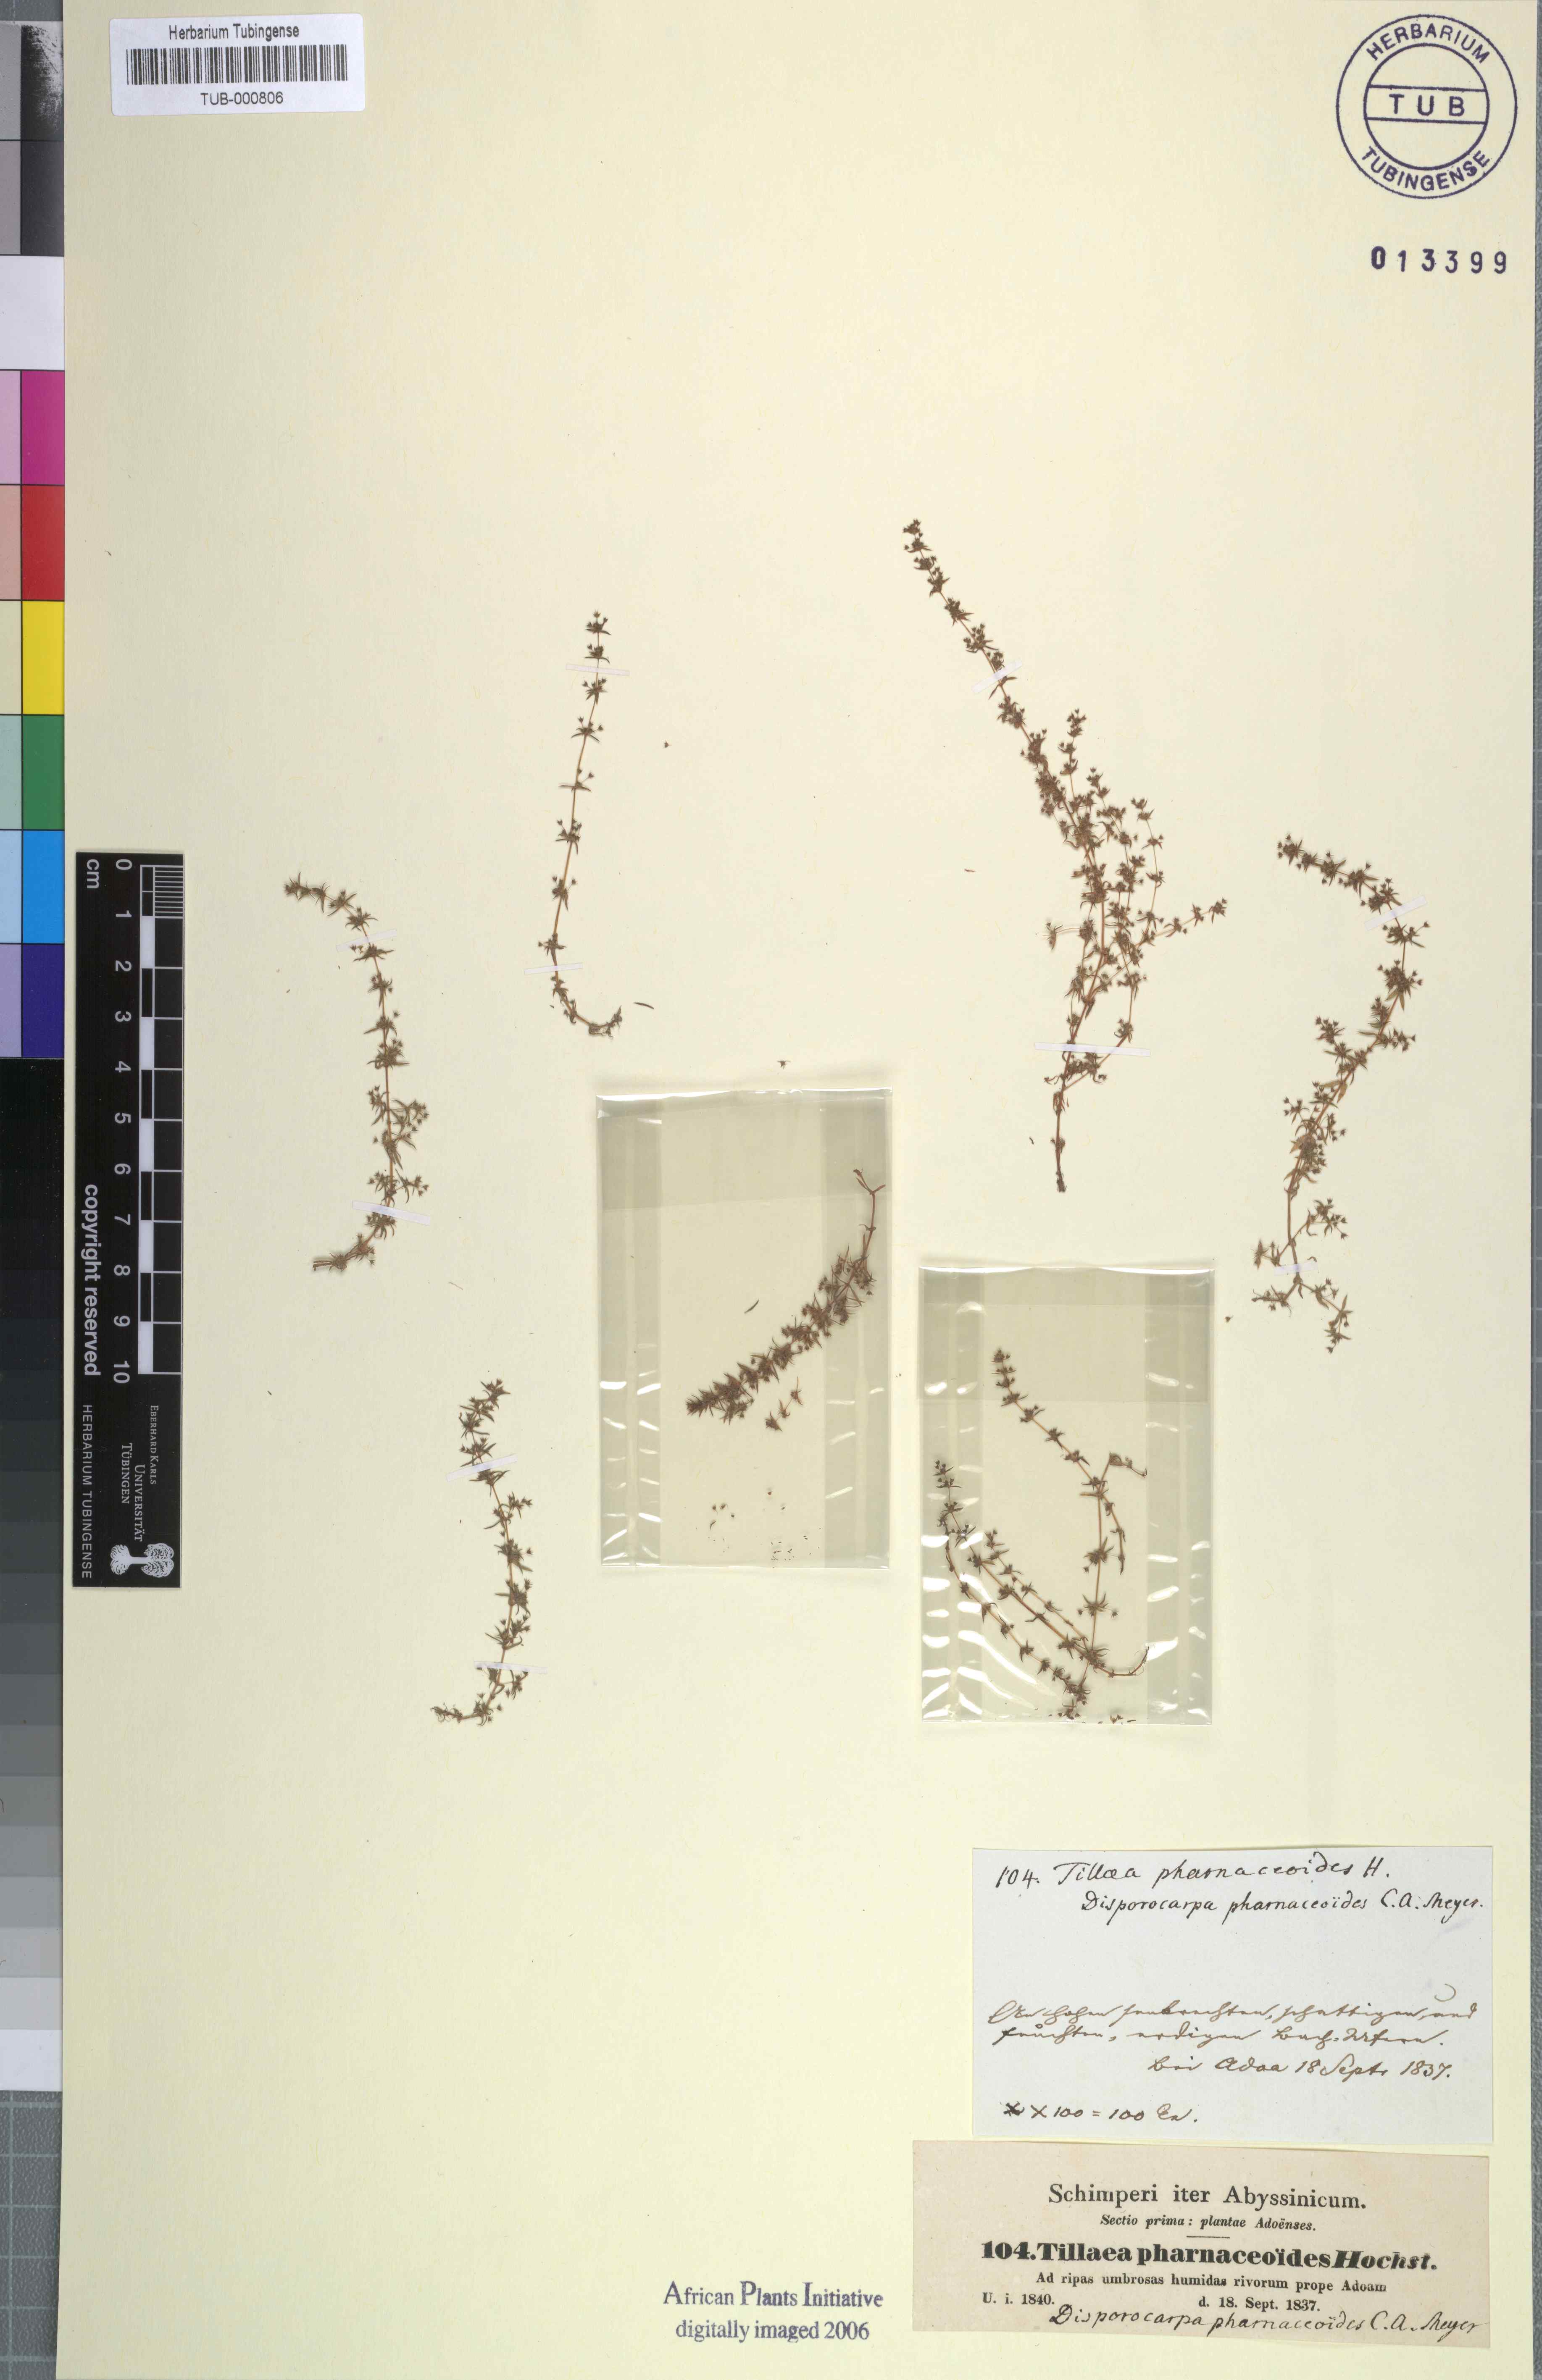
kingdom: Plantae
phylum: Tracheophyta
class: Magnoliopsida
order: Saxifragales
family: Crassulaceae
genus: Crassula
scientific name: Crassula alata
